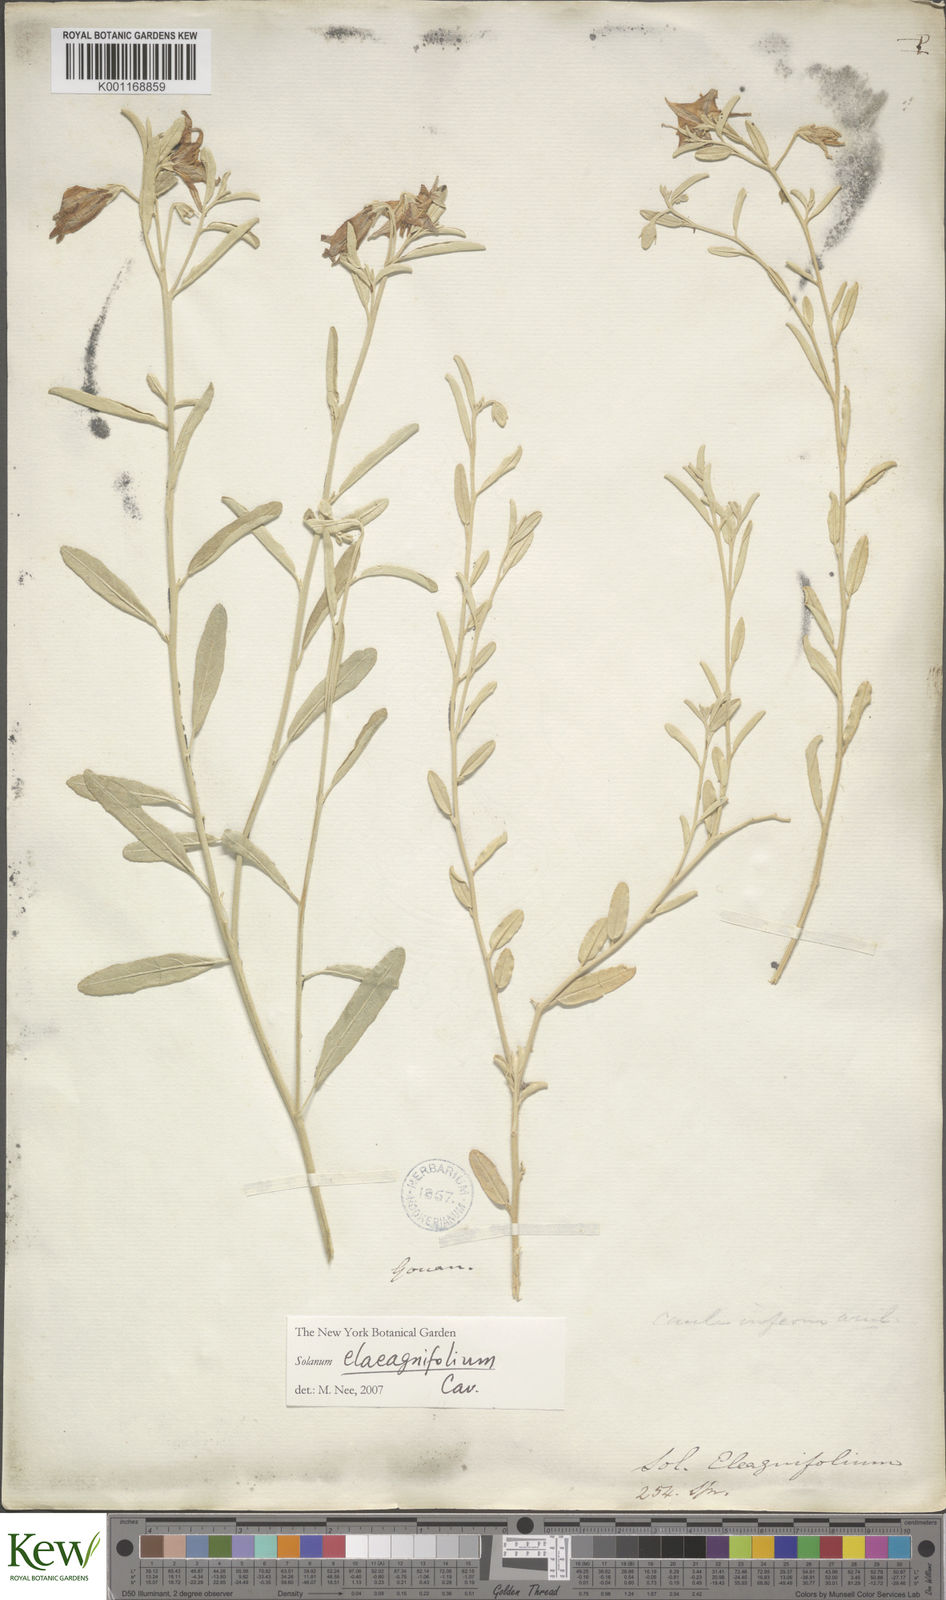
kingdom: Plantae
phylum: Tracheophyta
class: Magnoliopsida
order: Solanales
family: Solanaceae
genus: Solanum
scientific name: Solanum elaeagnifolium
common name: Silverleaf nightshade
